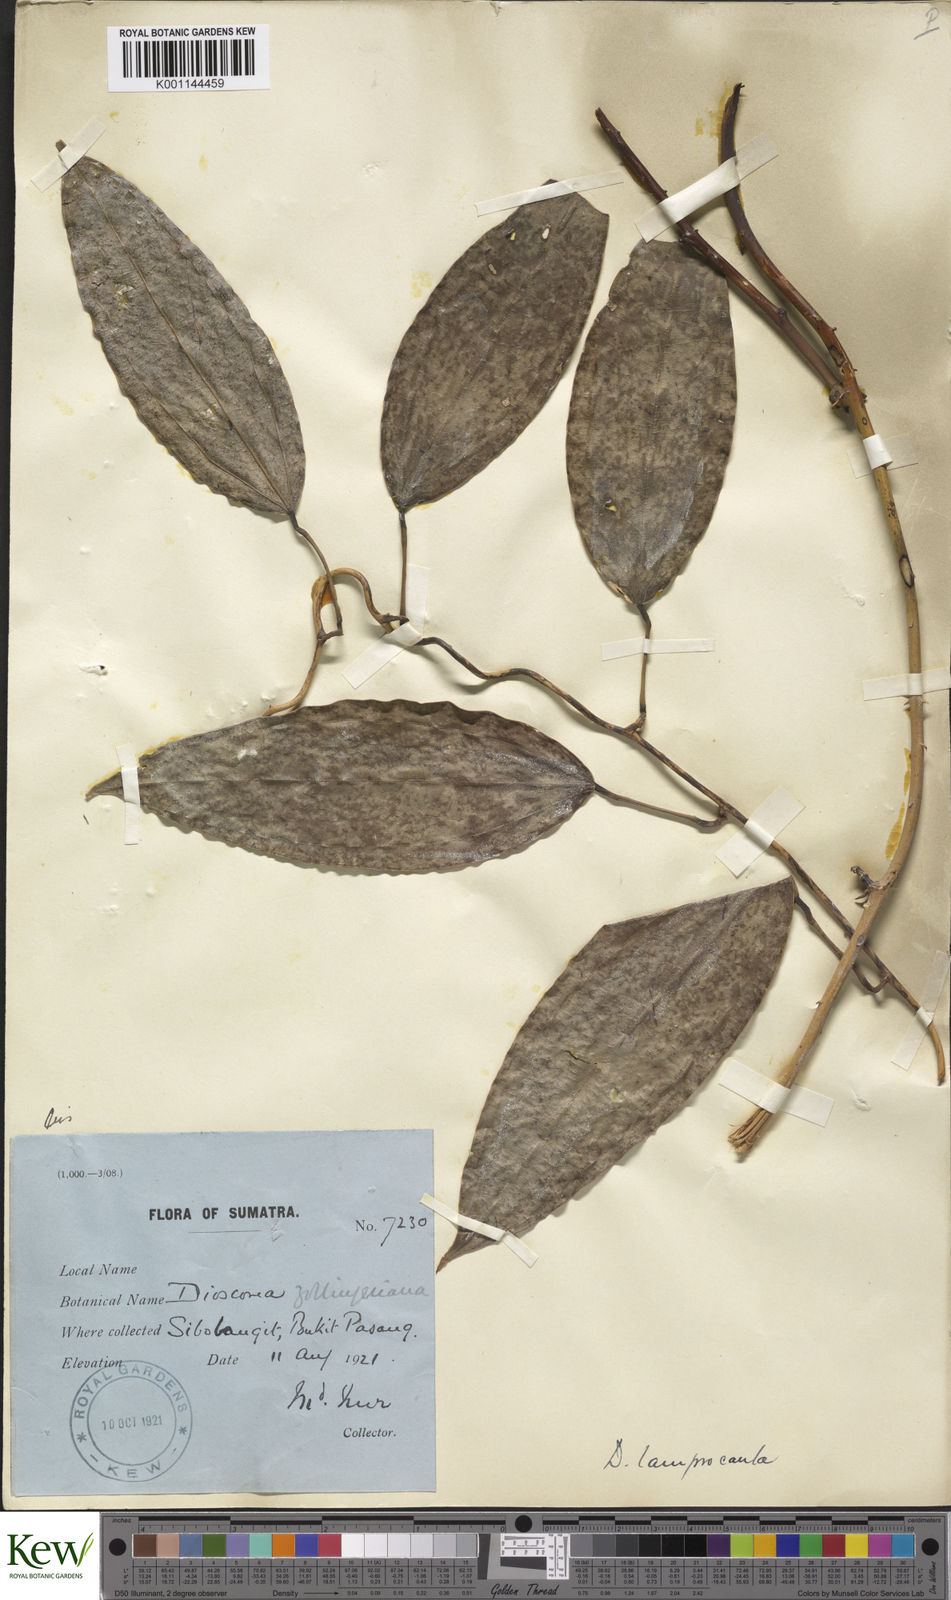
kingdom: Plantae
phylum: Tracheophyta
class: Liliopsida
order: Dioscoreales
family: Dioscoreaceae
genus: Dioscorea
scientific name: Dioscorea lamprocaula
